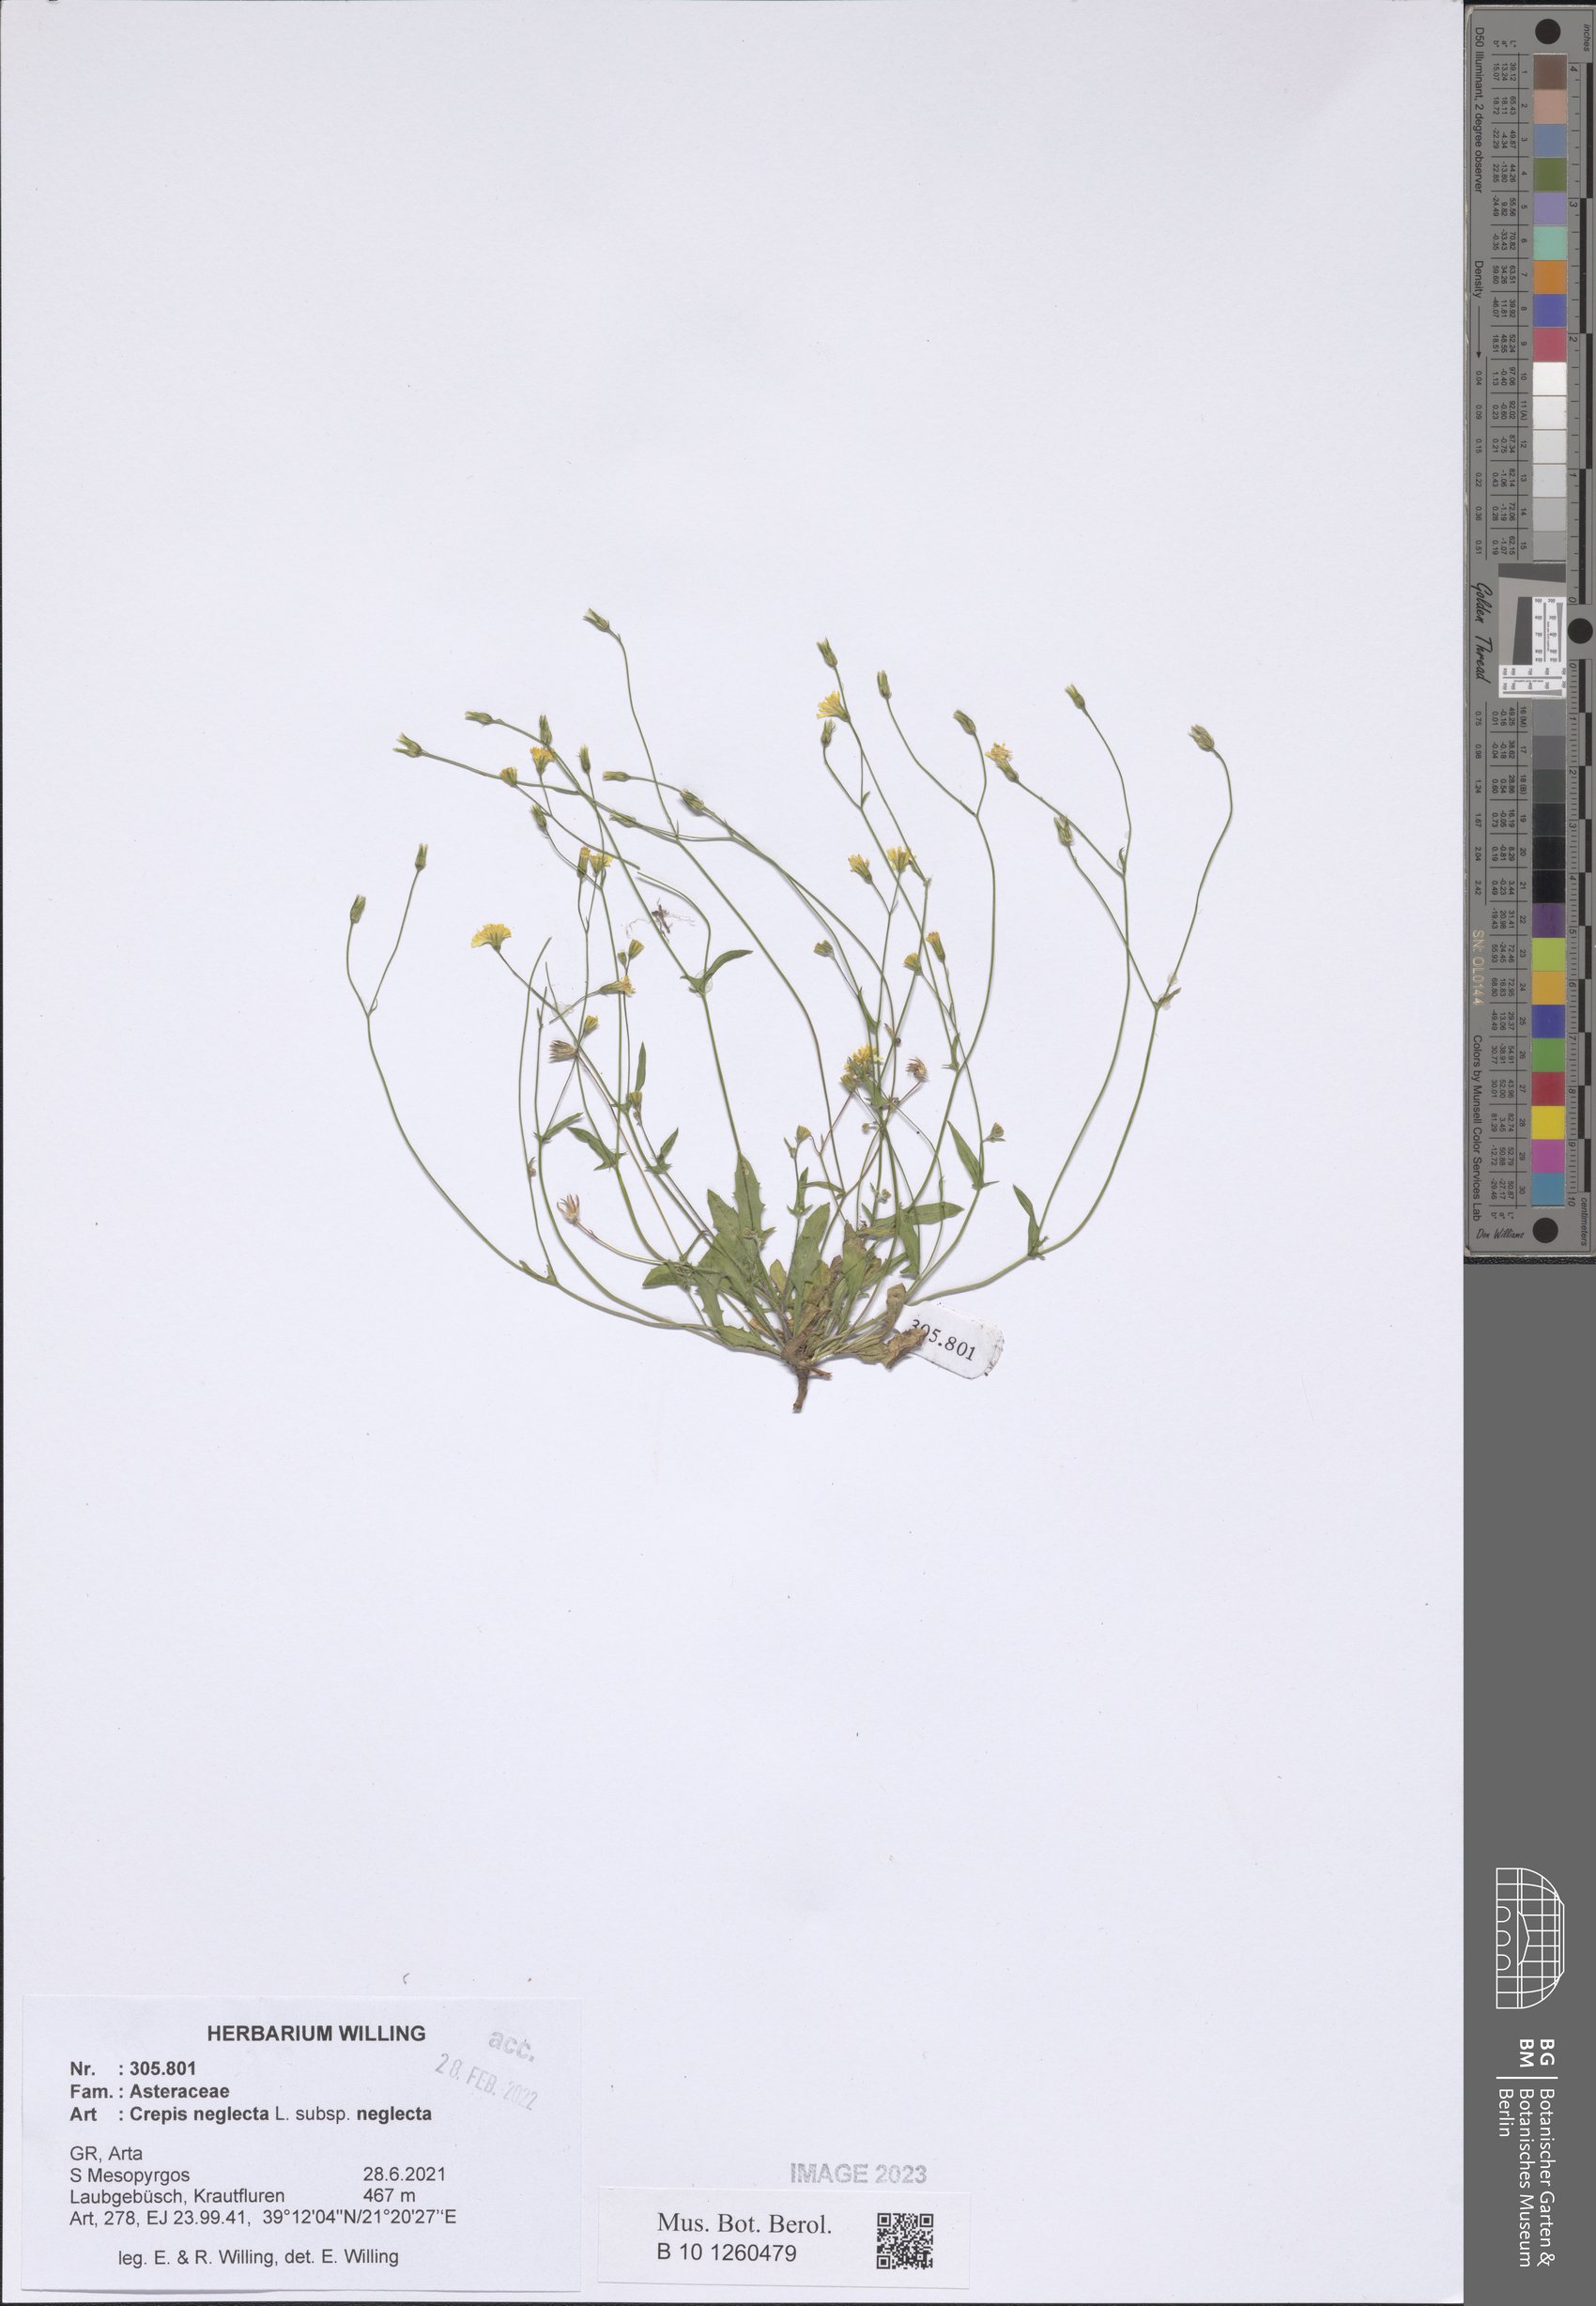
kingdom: Plantae
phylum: Tracheophyta
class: Magnoliopsida
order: Asterales
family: Asteraceae
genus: Crepis
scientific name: Crepis neglecta
